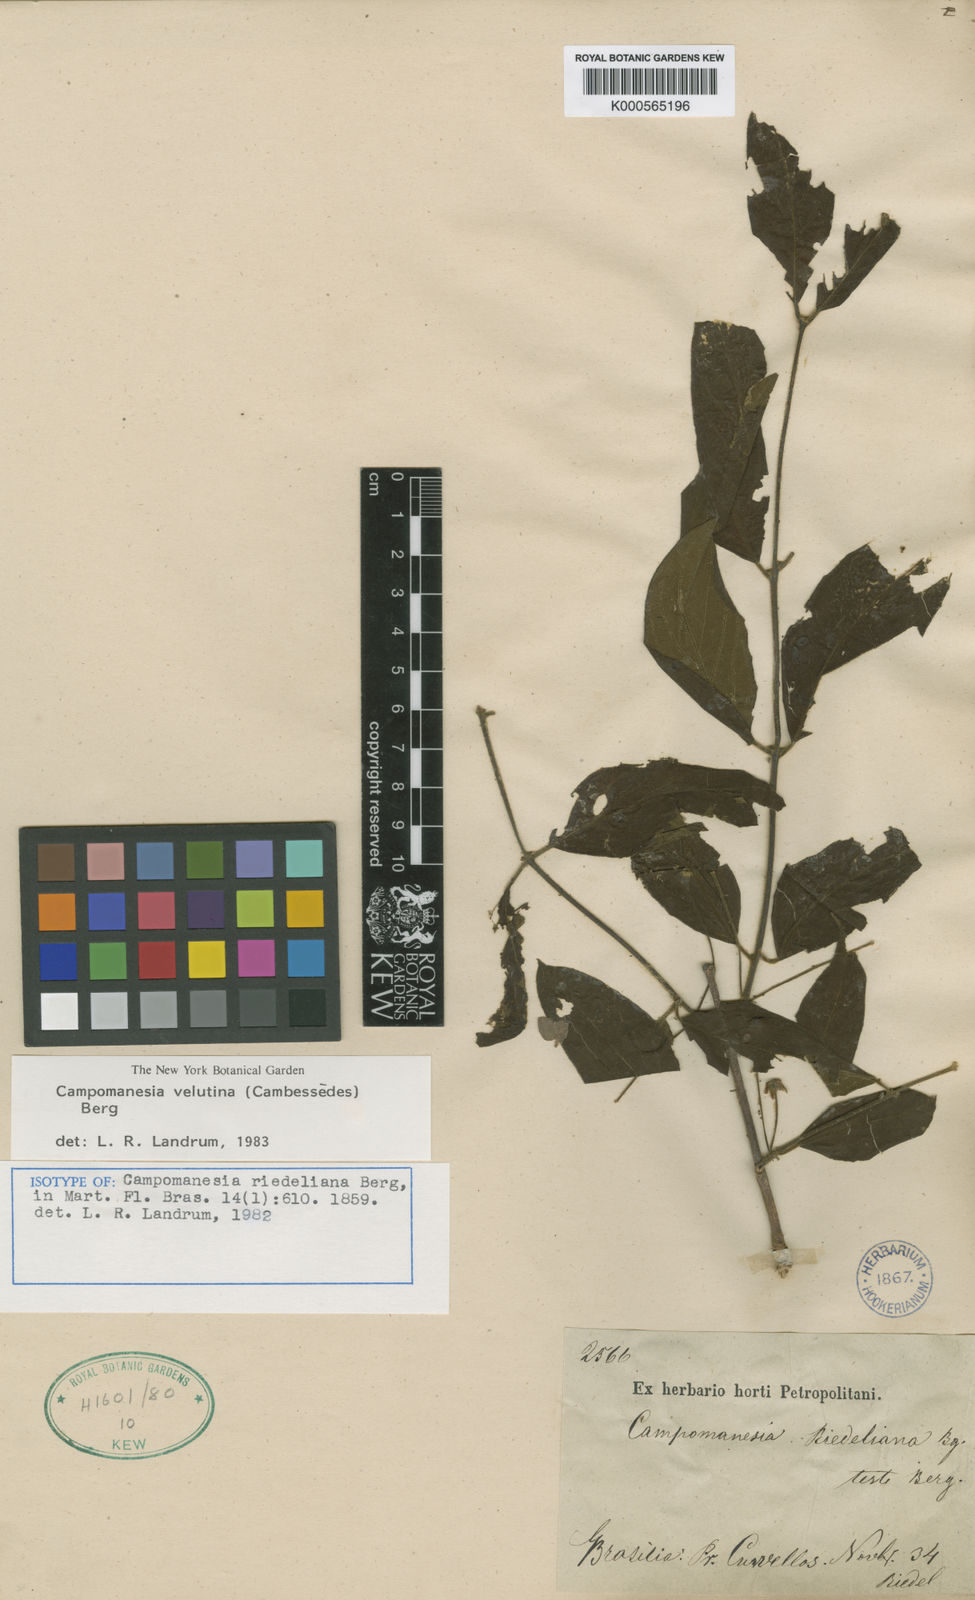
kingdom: Plantae
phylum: Tracheophyta
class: Magnoliopsida
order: Myrtales
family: Myrtaceae
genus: Campomanesia
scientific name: Campomanesia velutina
